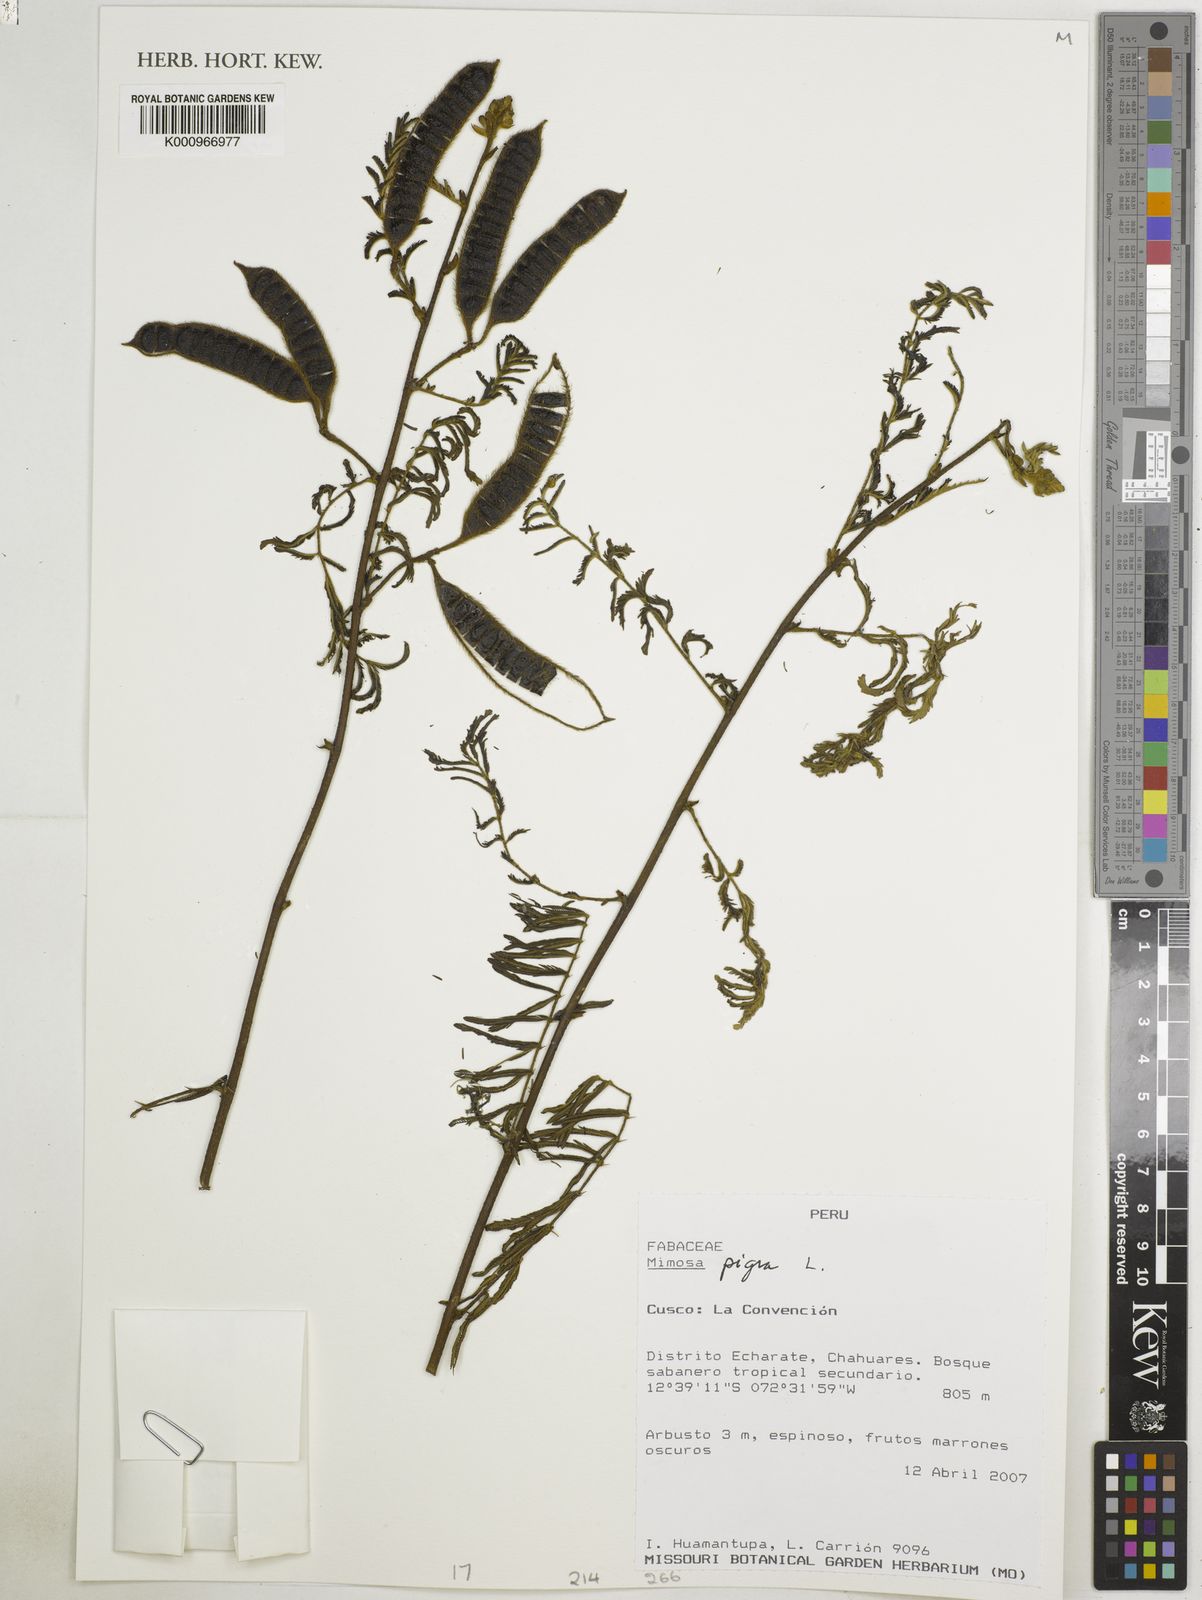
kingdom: Plantae
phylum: Tracheophyta
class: Magnoliopsida
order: Fabales
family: Fabaceae
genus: Mimosa
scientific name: Mimosa pigra
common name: Black mimosa
